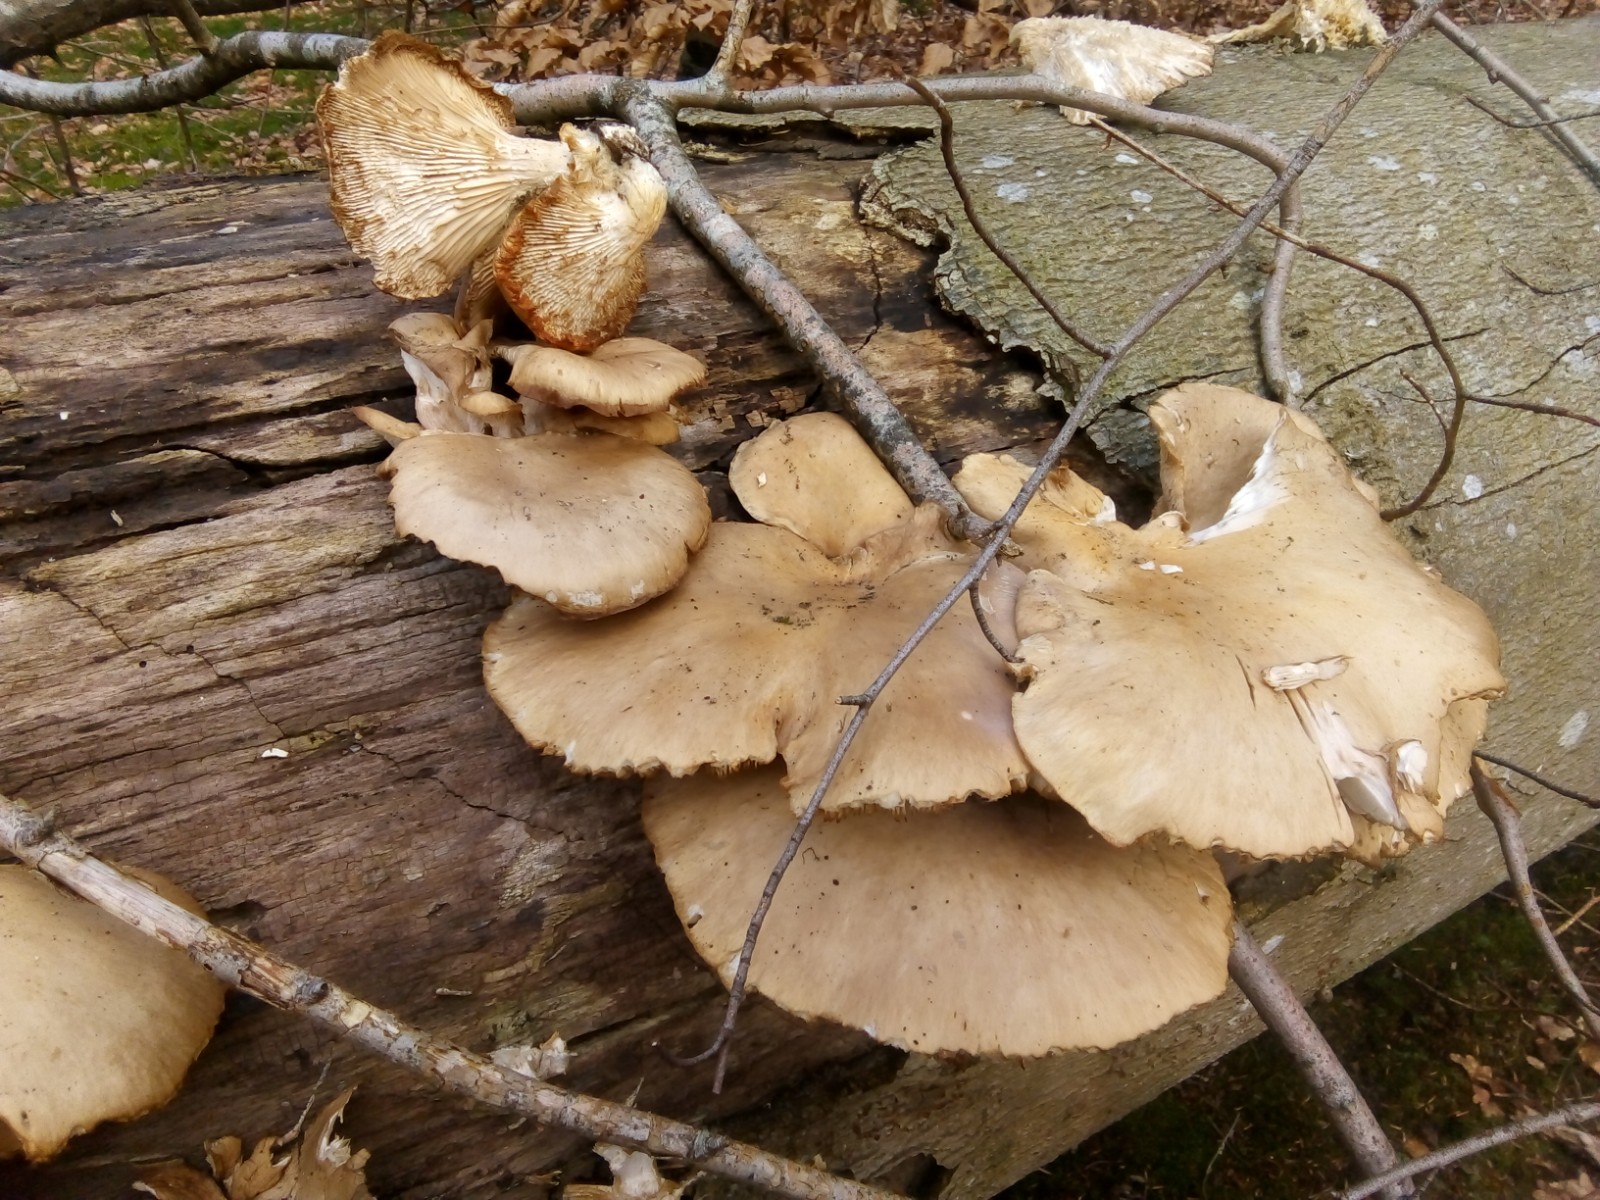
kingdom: Fungi
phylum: Basidiomycota
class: Agaricomycetes
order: Agaricales
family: Pleurotaceae
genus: Pleurotus
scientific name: Pleurotus ostreatus
